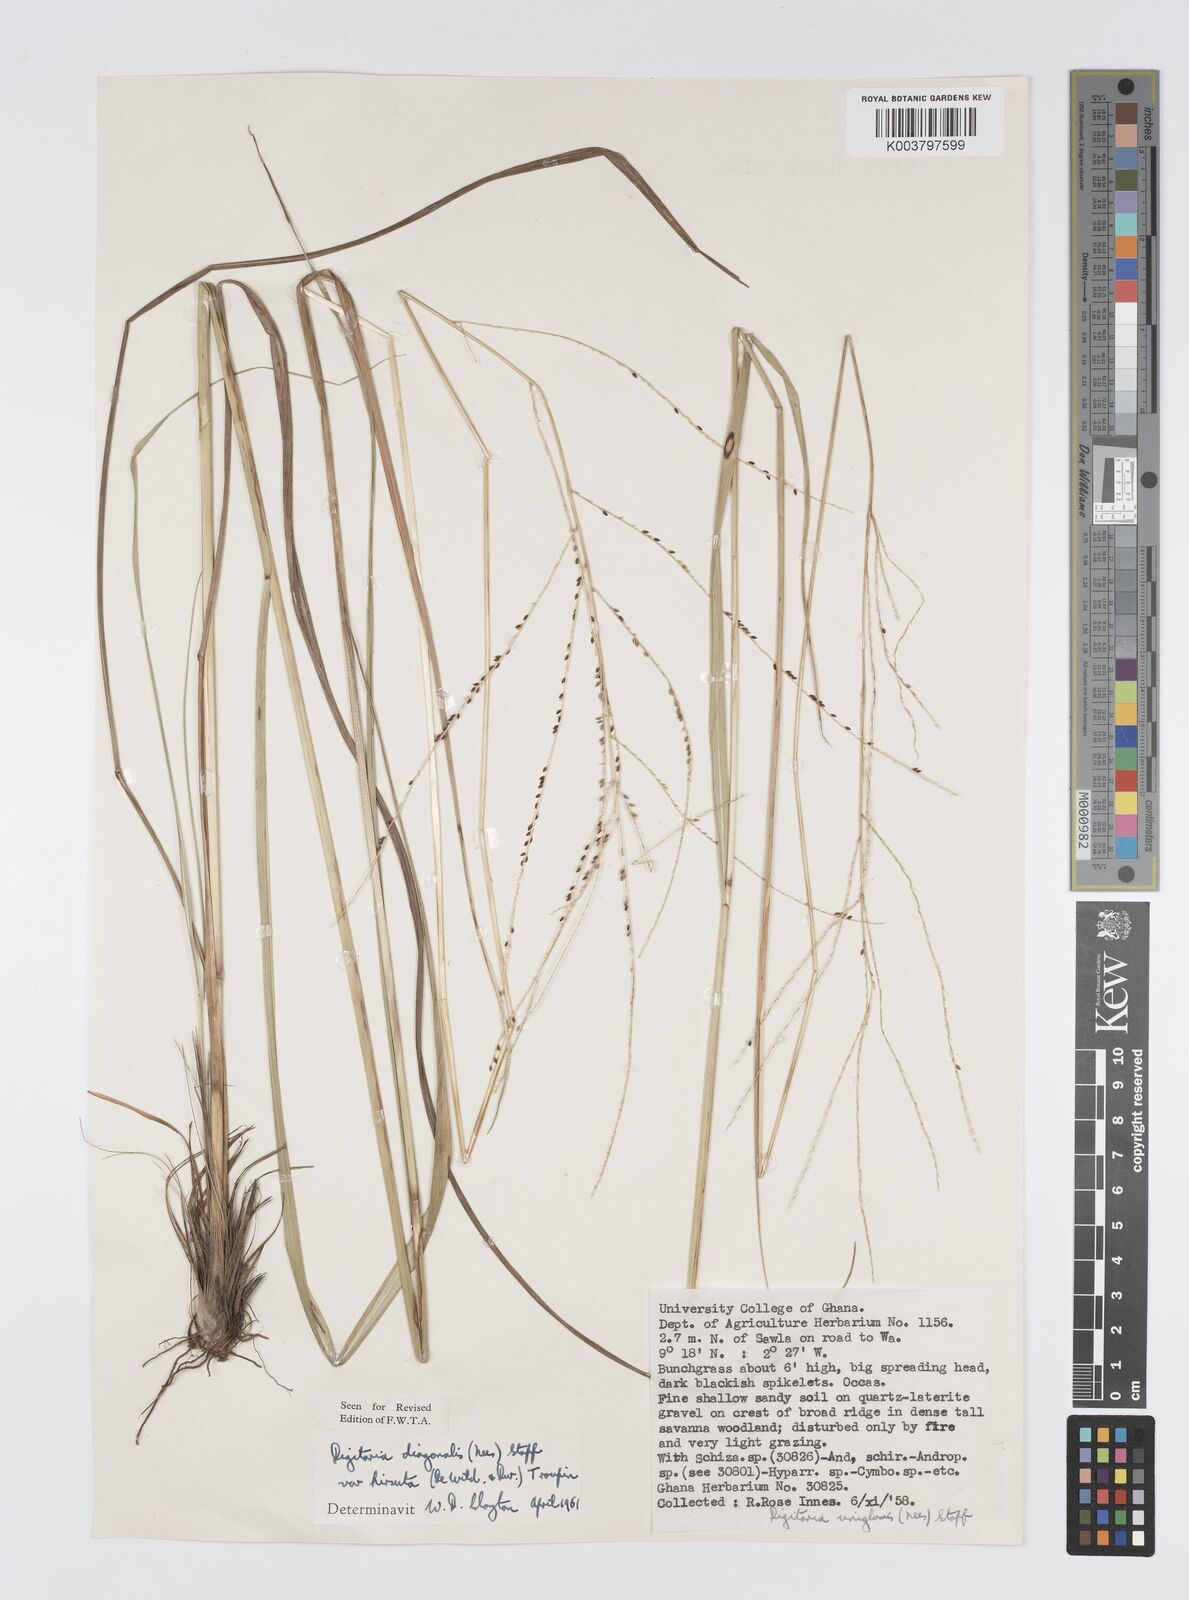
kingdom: Plantae
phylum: Tracheophyta
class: Liliopsida
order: Poales
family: Poaceae
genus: Digitaria
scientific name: Digitaria diagonalis
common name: Brown-seed finger grass
